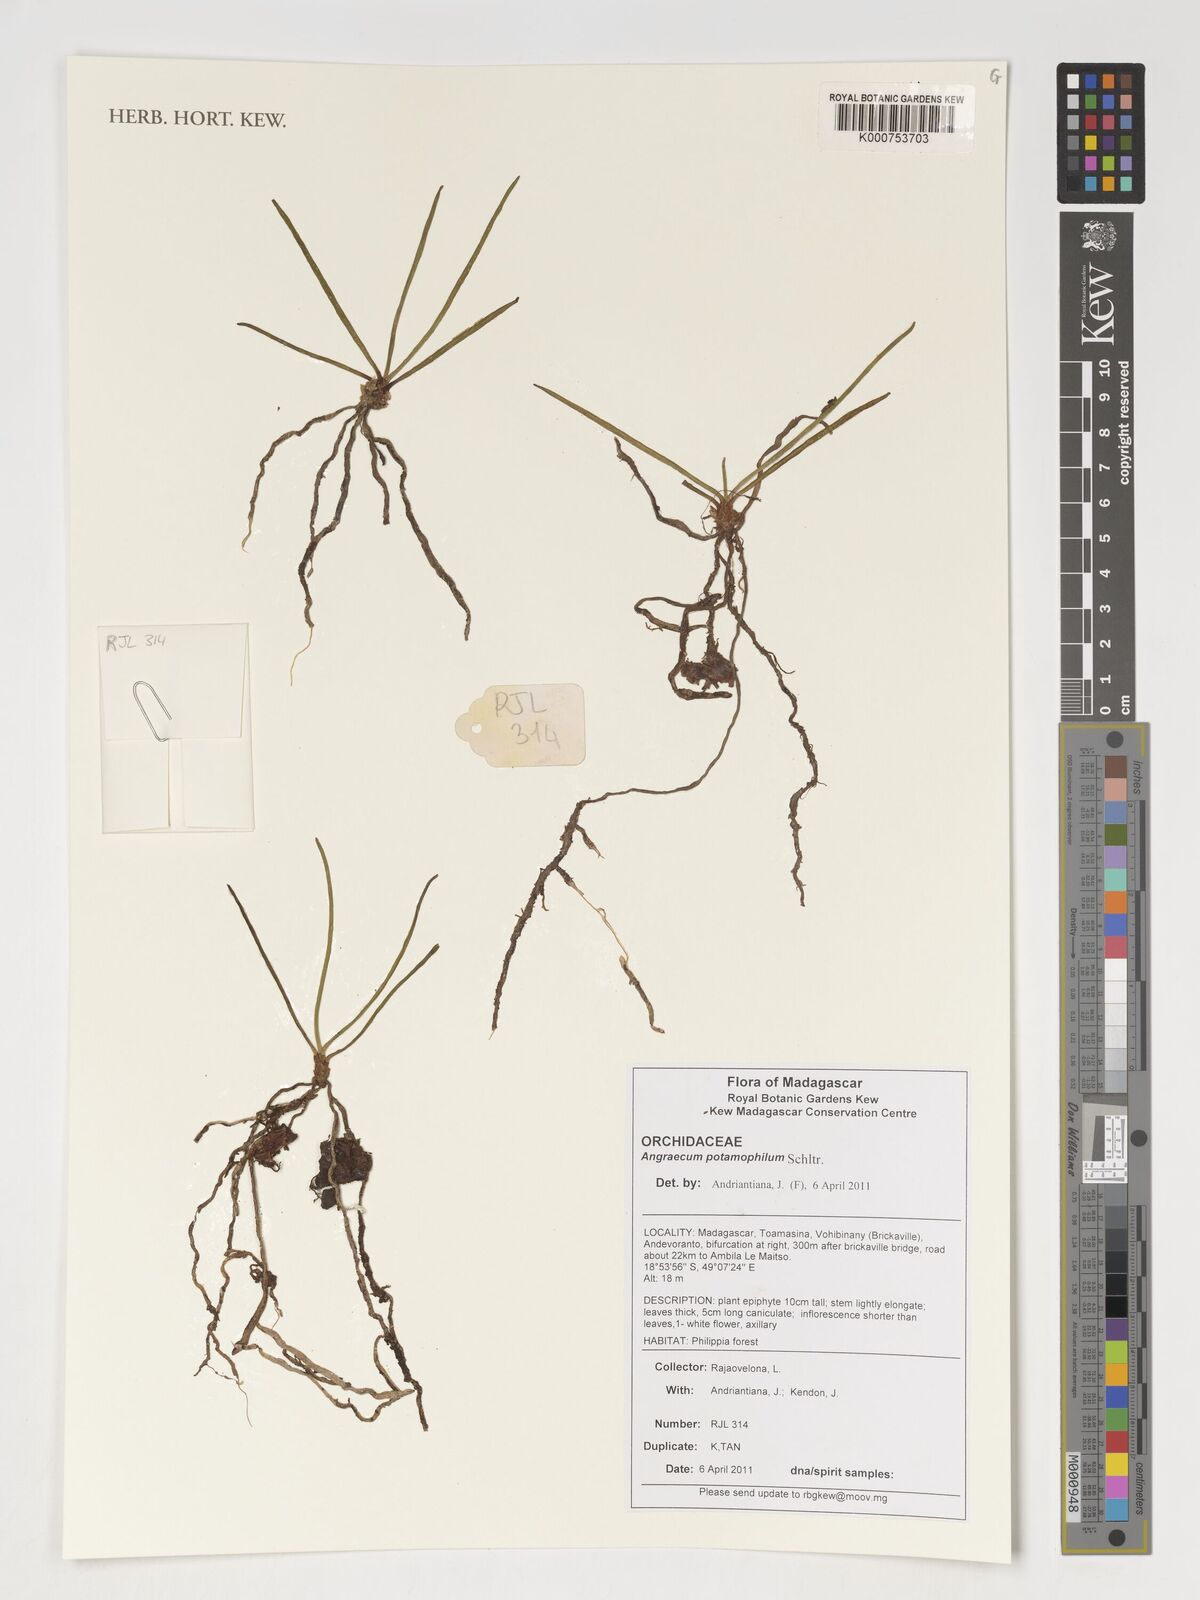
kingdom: Plantae
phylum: Tracheophyta
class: Liliopsida
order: Asparagales
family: Orchidaceae
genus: Angraecum
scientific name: Angraecum potamophilum
